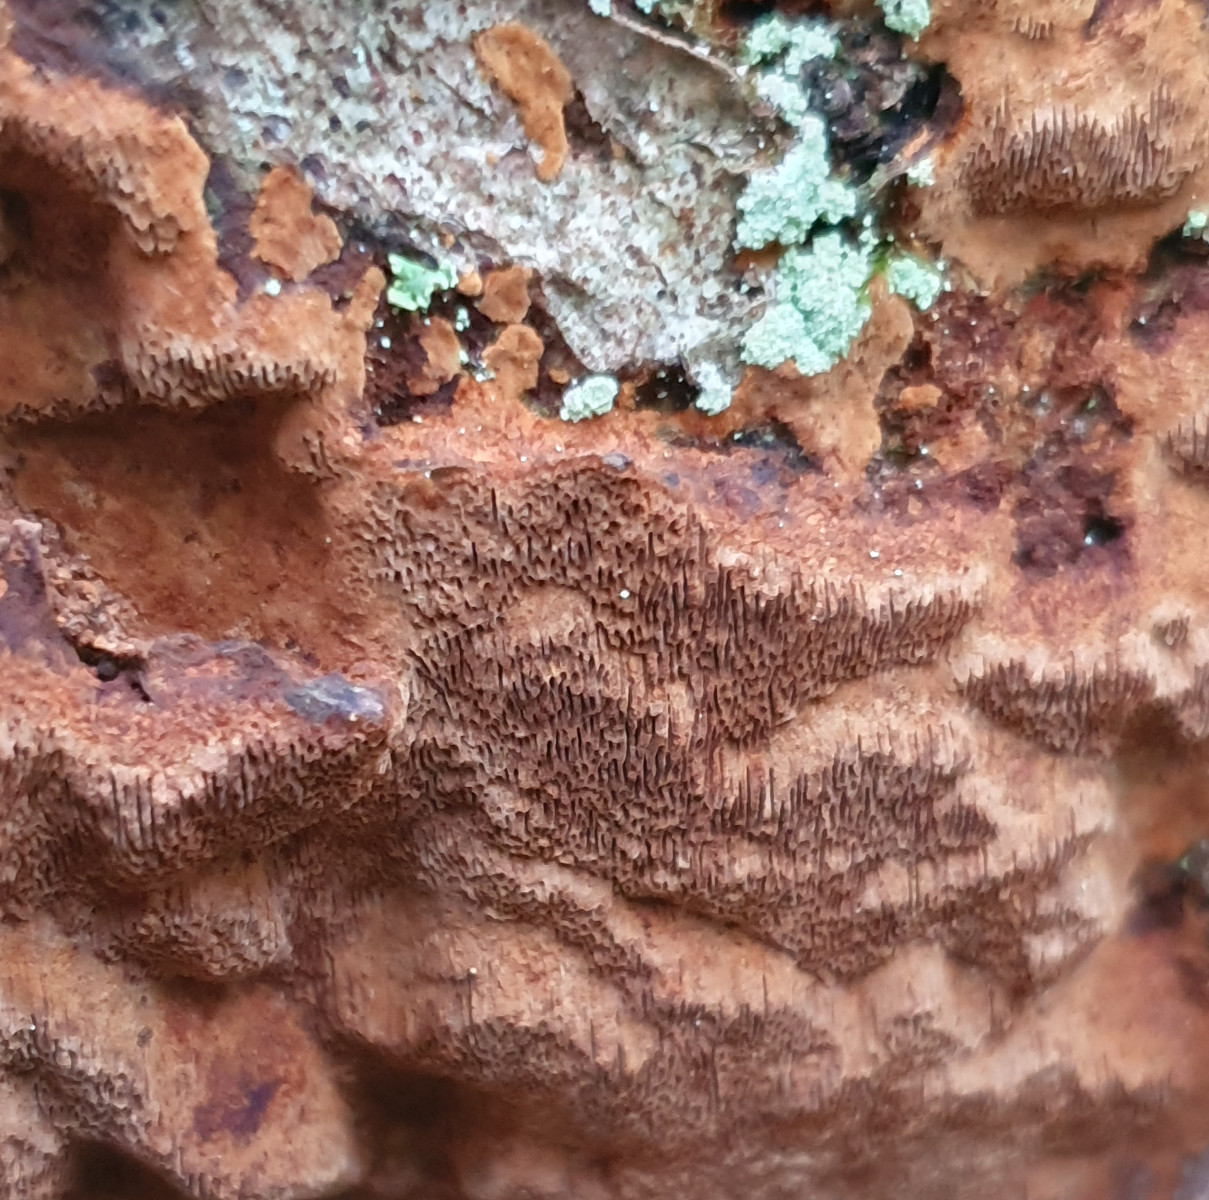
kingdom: Fungi
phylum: Basidiomycota
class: Agaricomycetes
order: Hymenochaetales
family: Hymenochaetaceae
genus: Fuscoporia
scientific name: Fuscoporia ferrea
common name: skorpe-ildporesvamp
